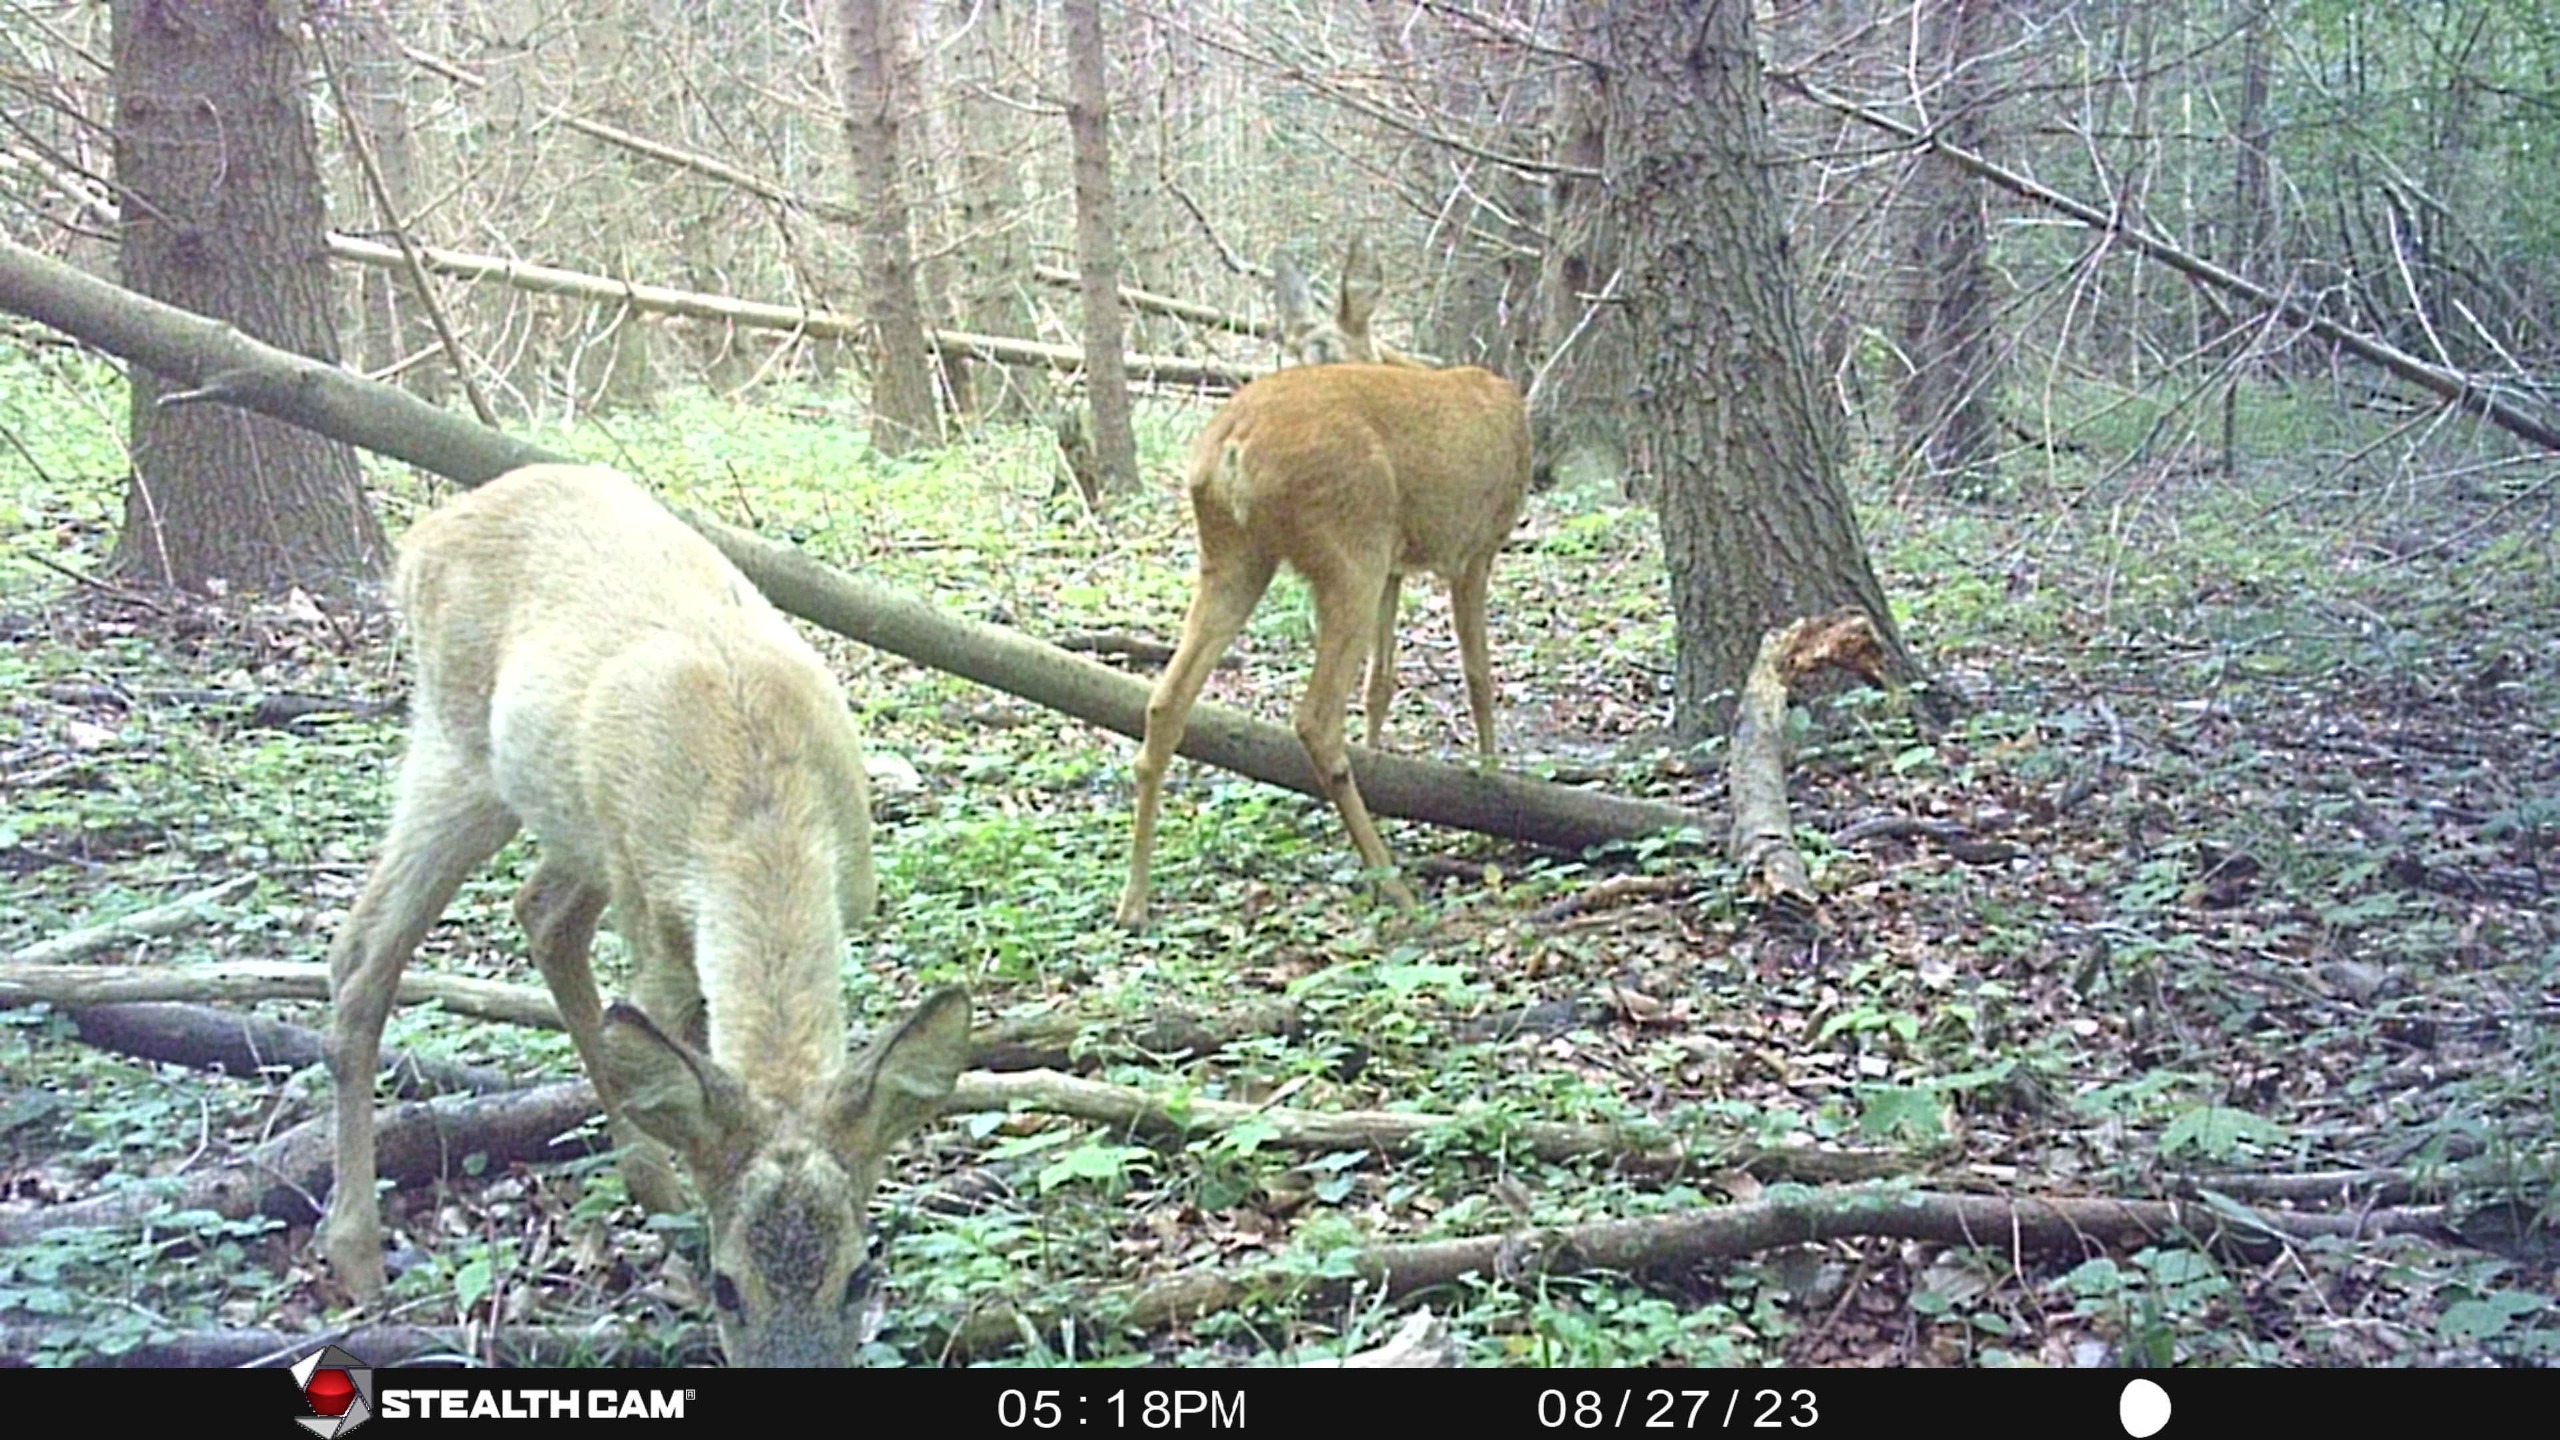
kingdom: Animalia
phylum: Chordata
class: Mammalia
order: Artiodactyla
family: Cervidae
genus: Capreolus
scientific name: Capreolus capreolus
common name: Rådyr
